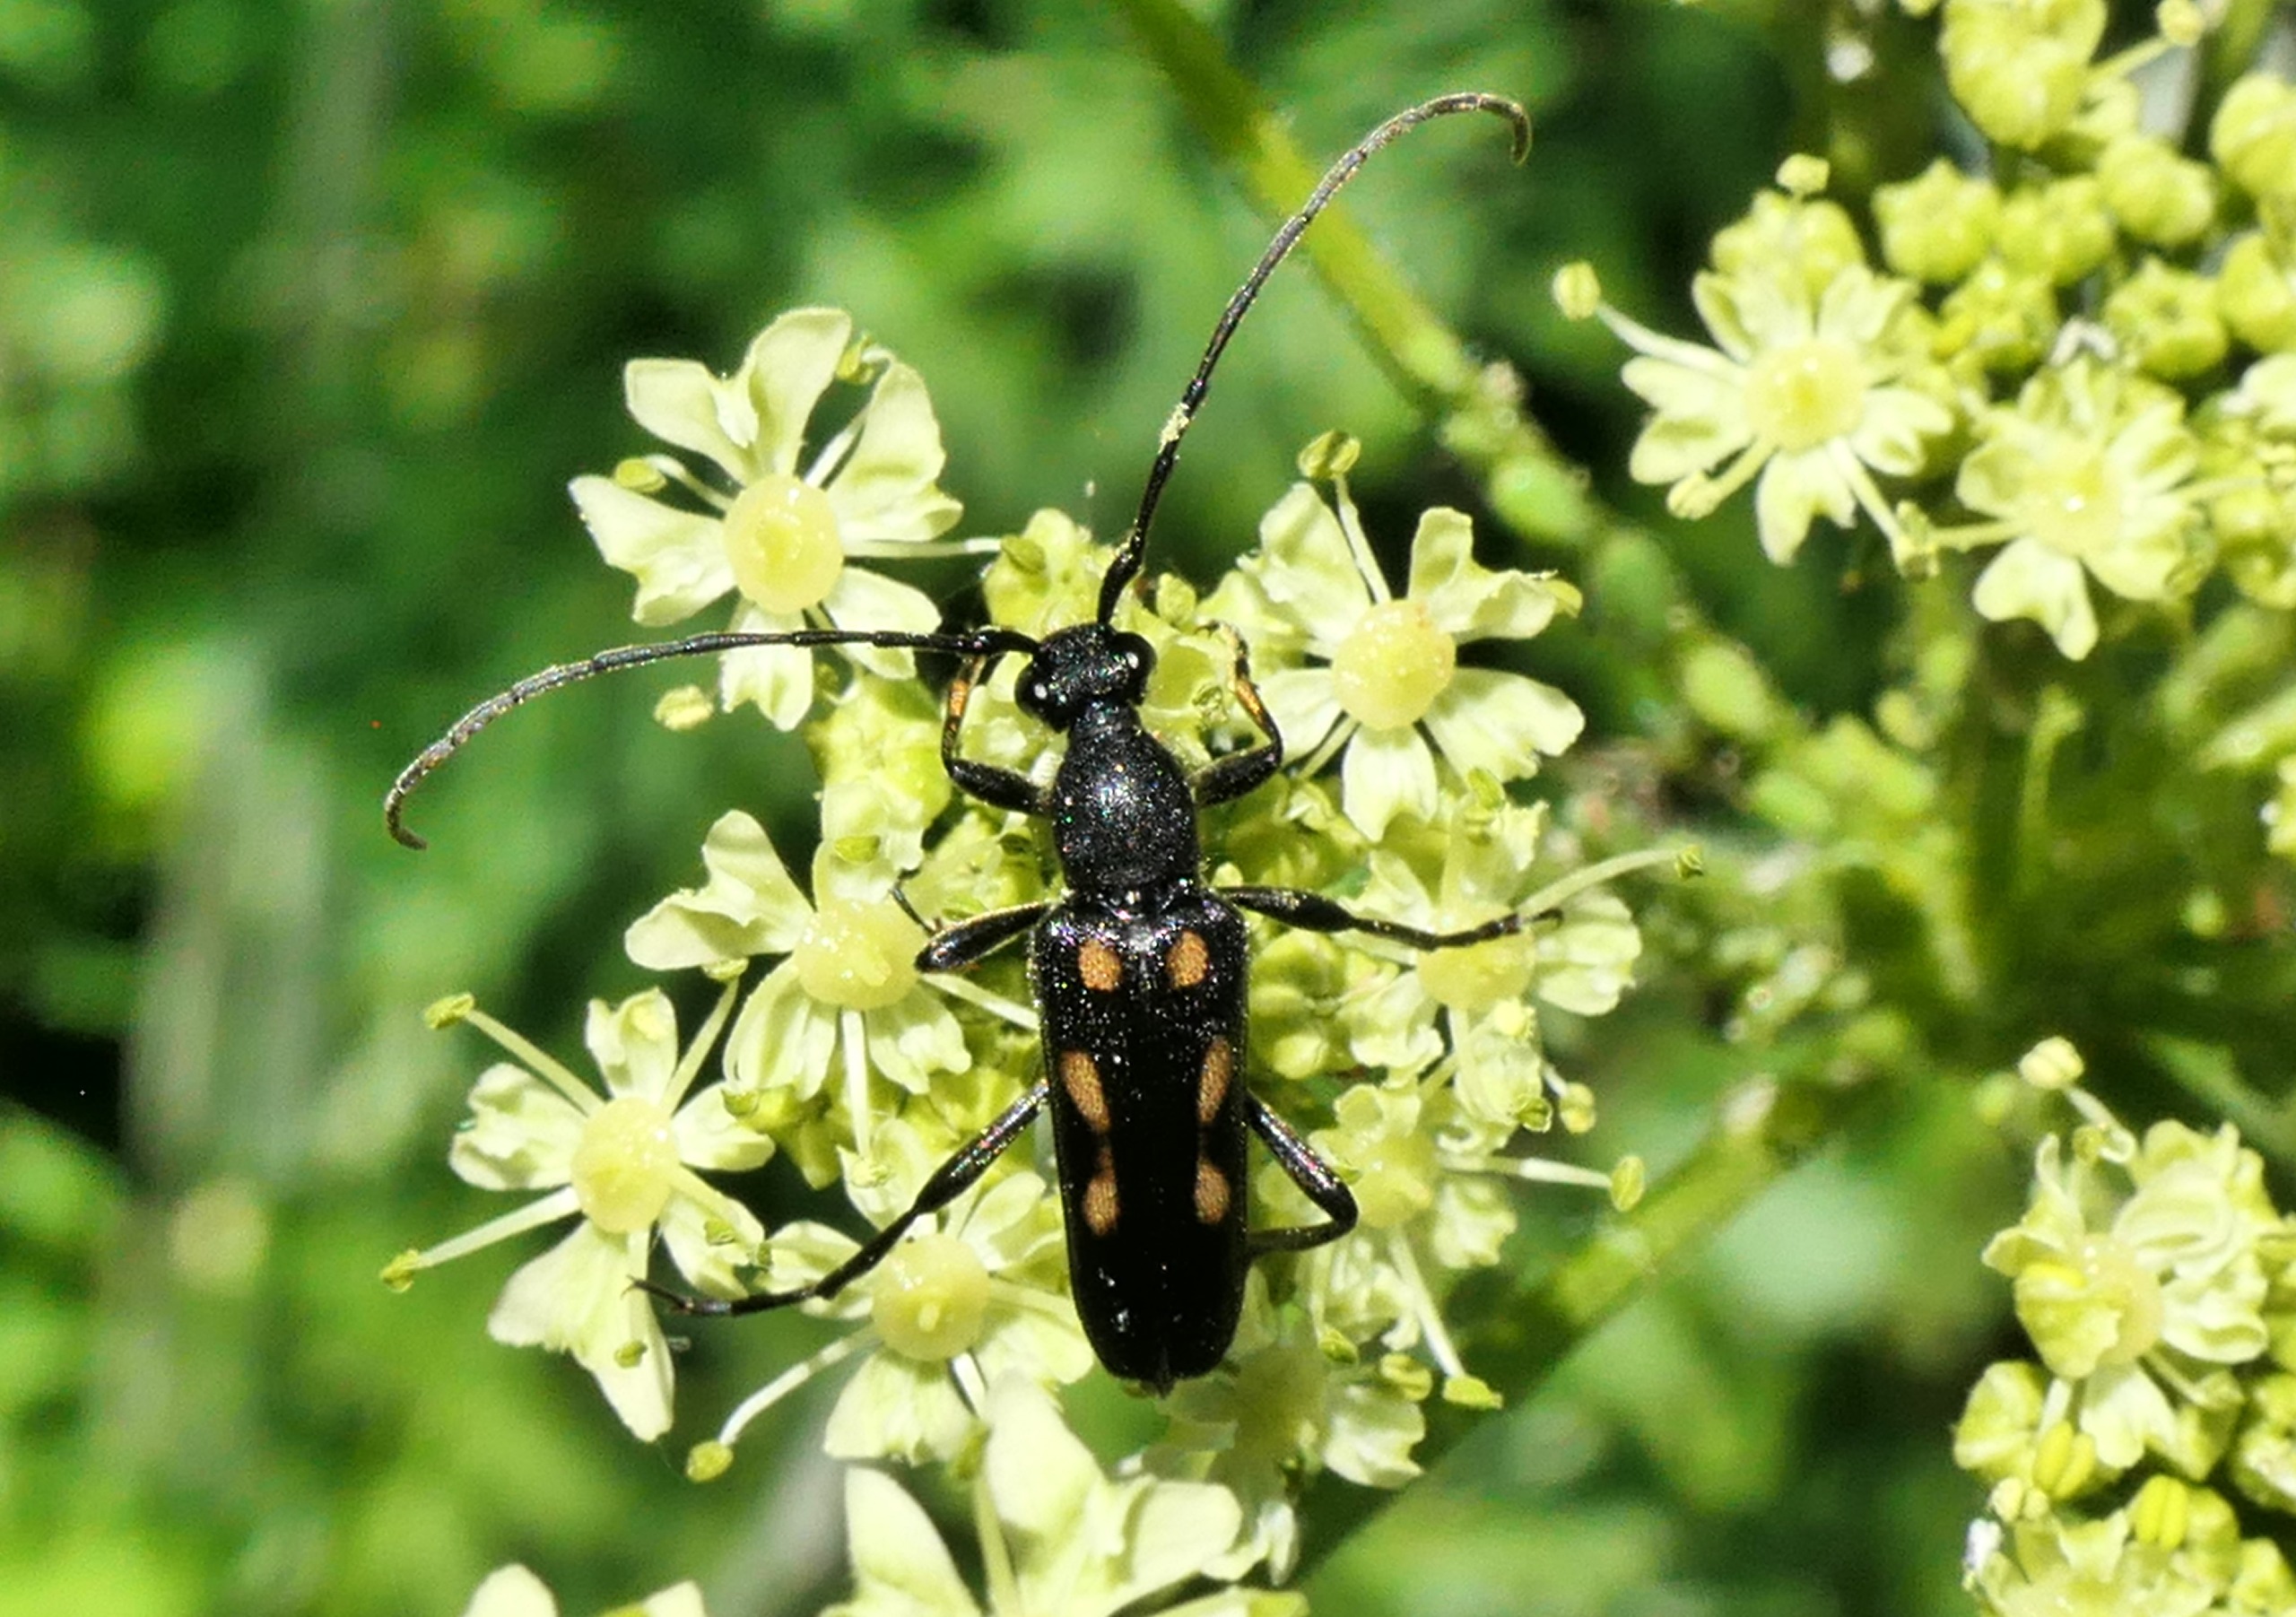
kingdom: Animalia
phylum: Arthropoda
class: Insecta
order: Coleoptera
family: Cerambycidae
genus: Anoplodera
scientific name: Anoplodera sexguttata
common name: Seksplettet blomsterbuk
